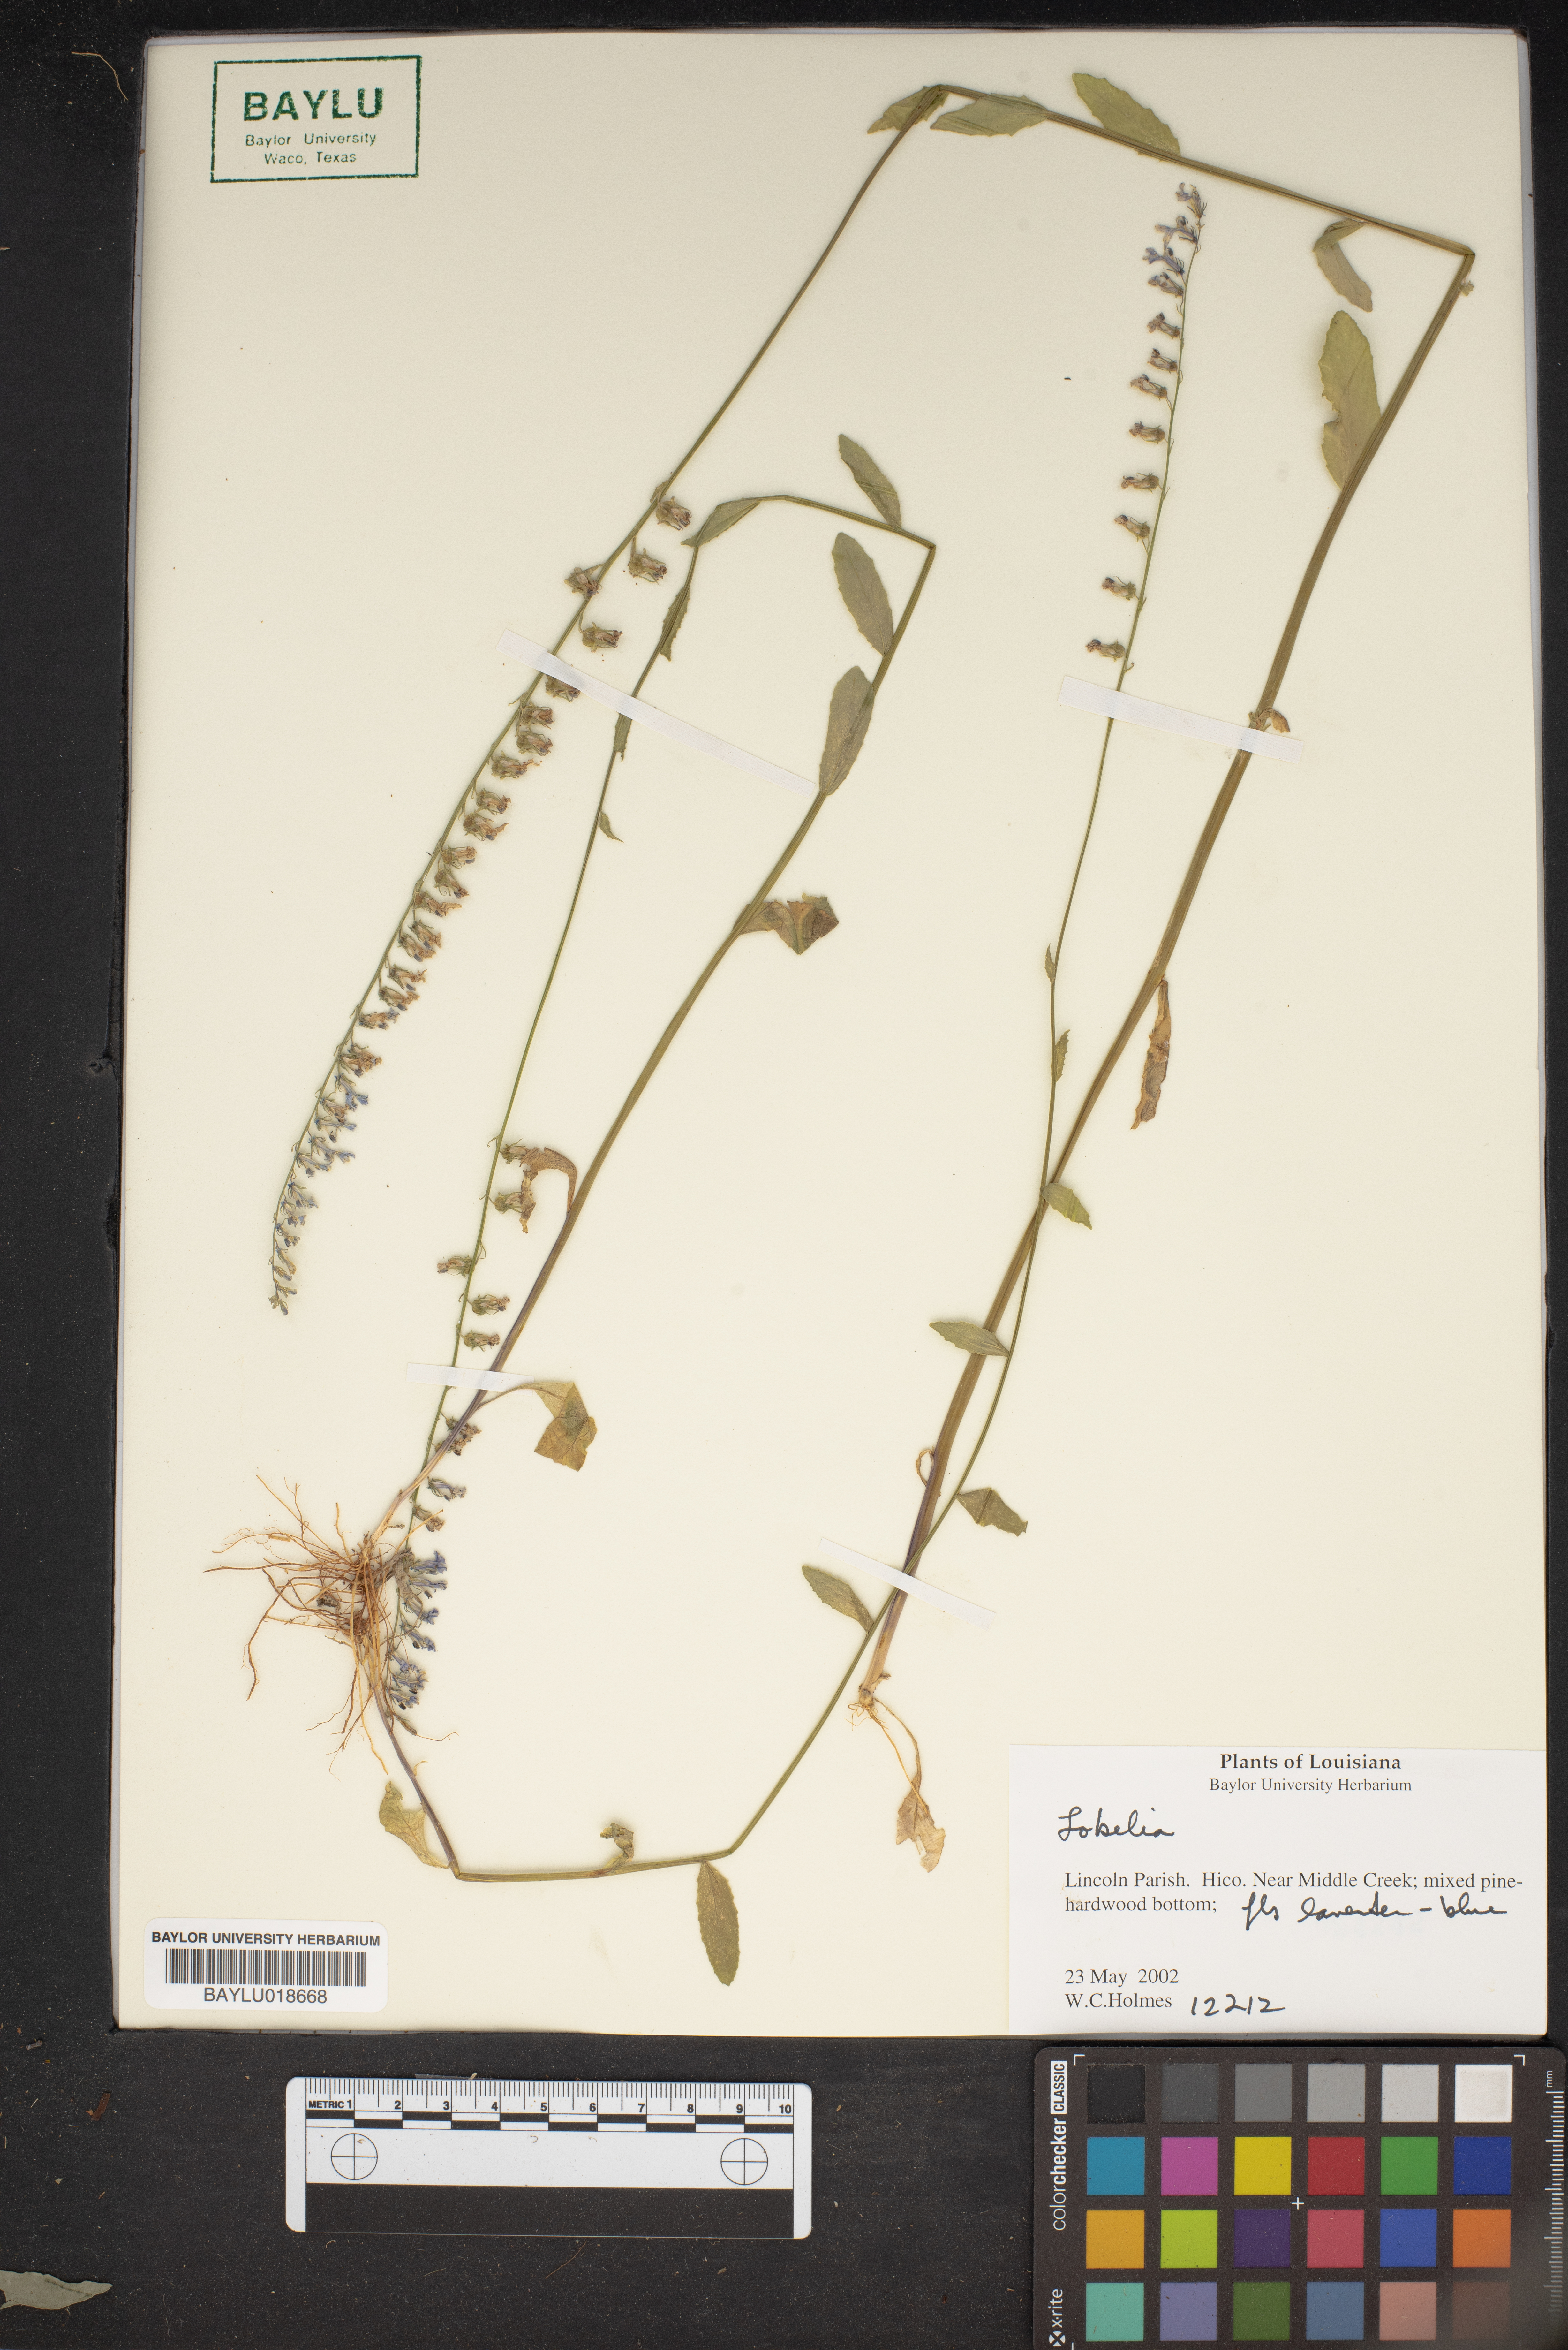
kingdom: Plantae
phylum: Tracheophyta
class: Magnoliopsida
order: Asterales
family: Campanulaceae
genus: Lobelia
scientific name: Lobelia
